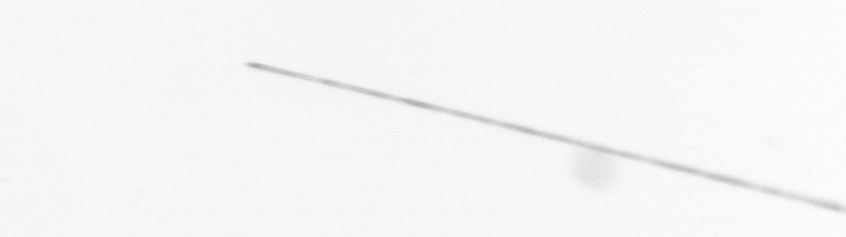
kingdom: Chromista
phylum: Ochrophyta
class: Bacillariophyceae
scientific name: Bacillariophyceae
